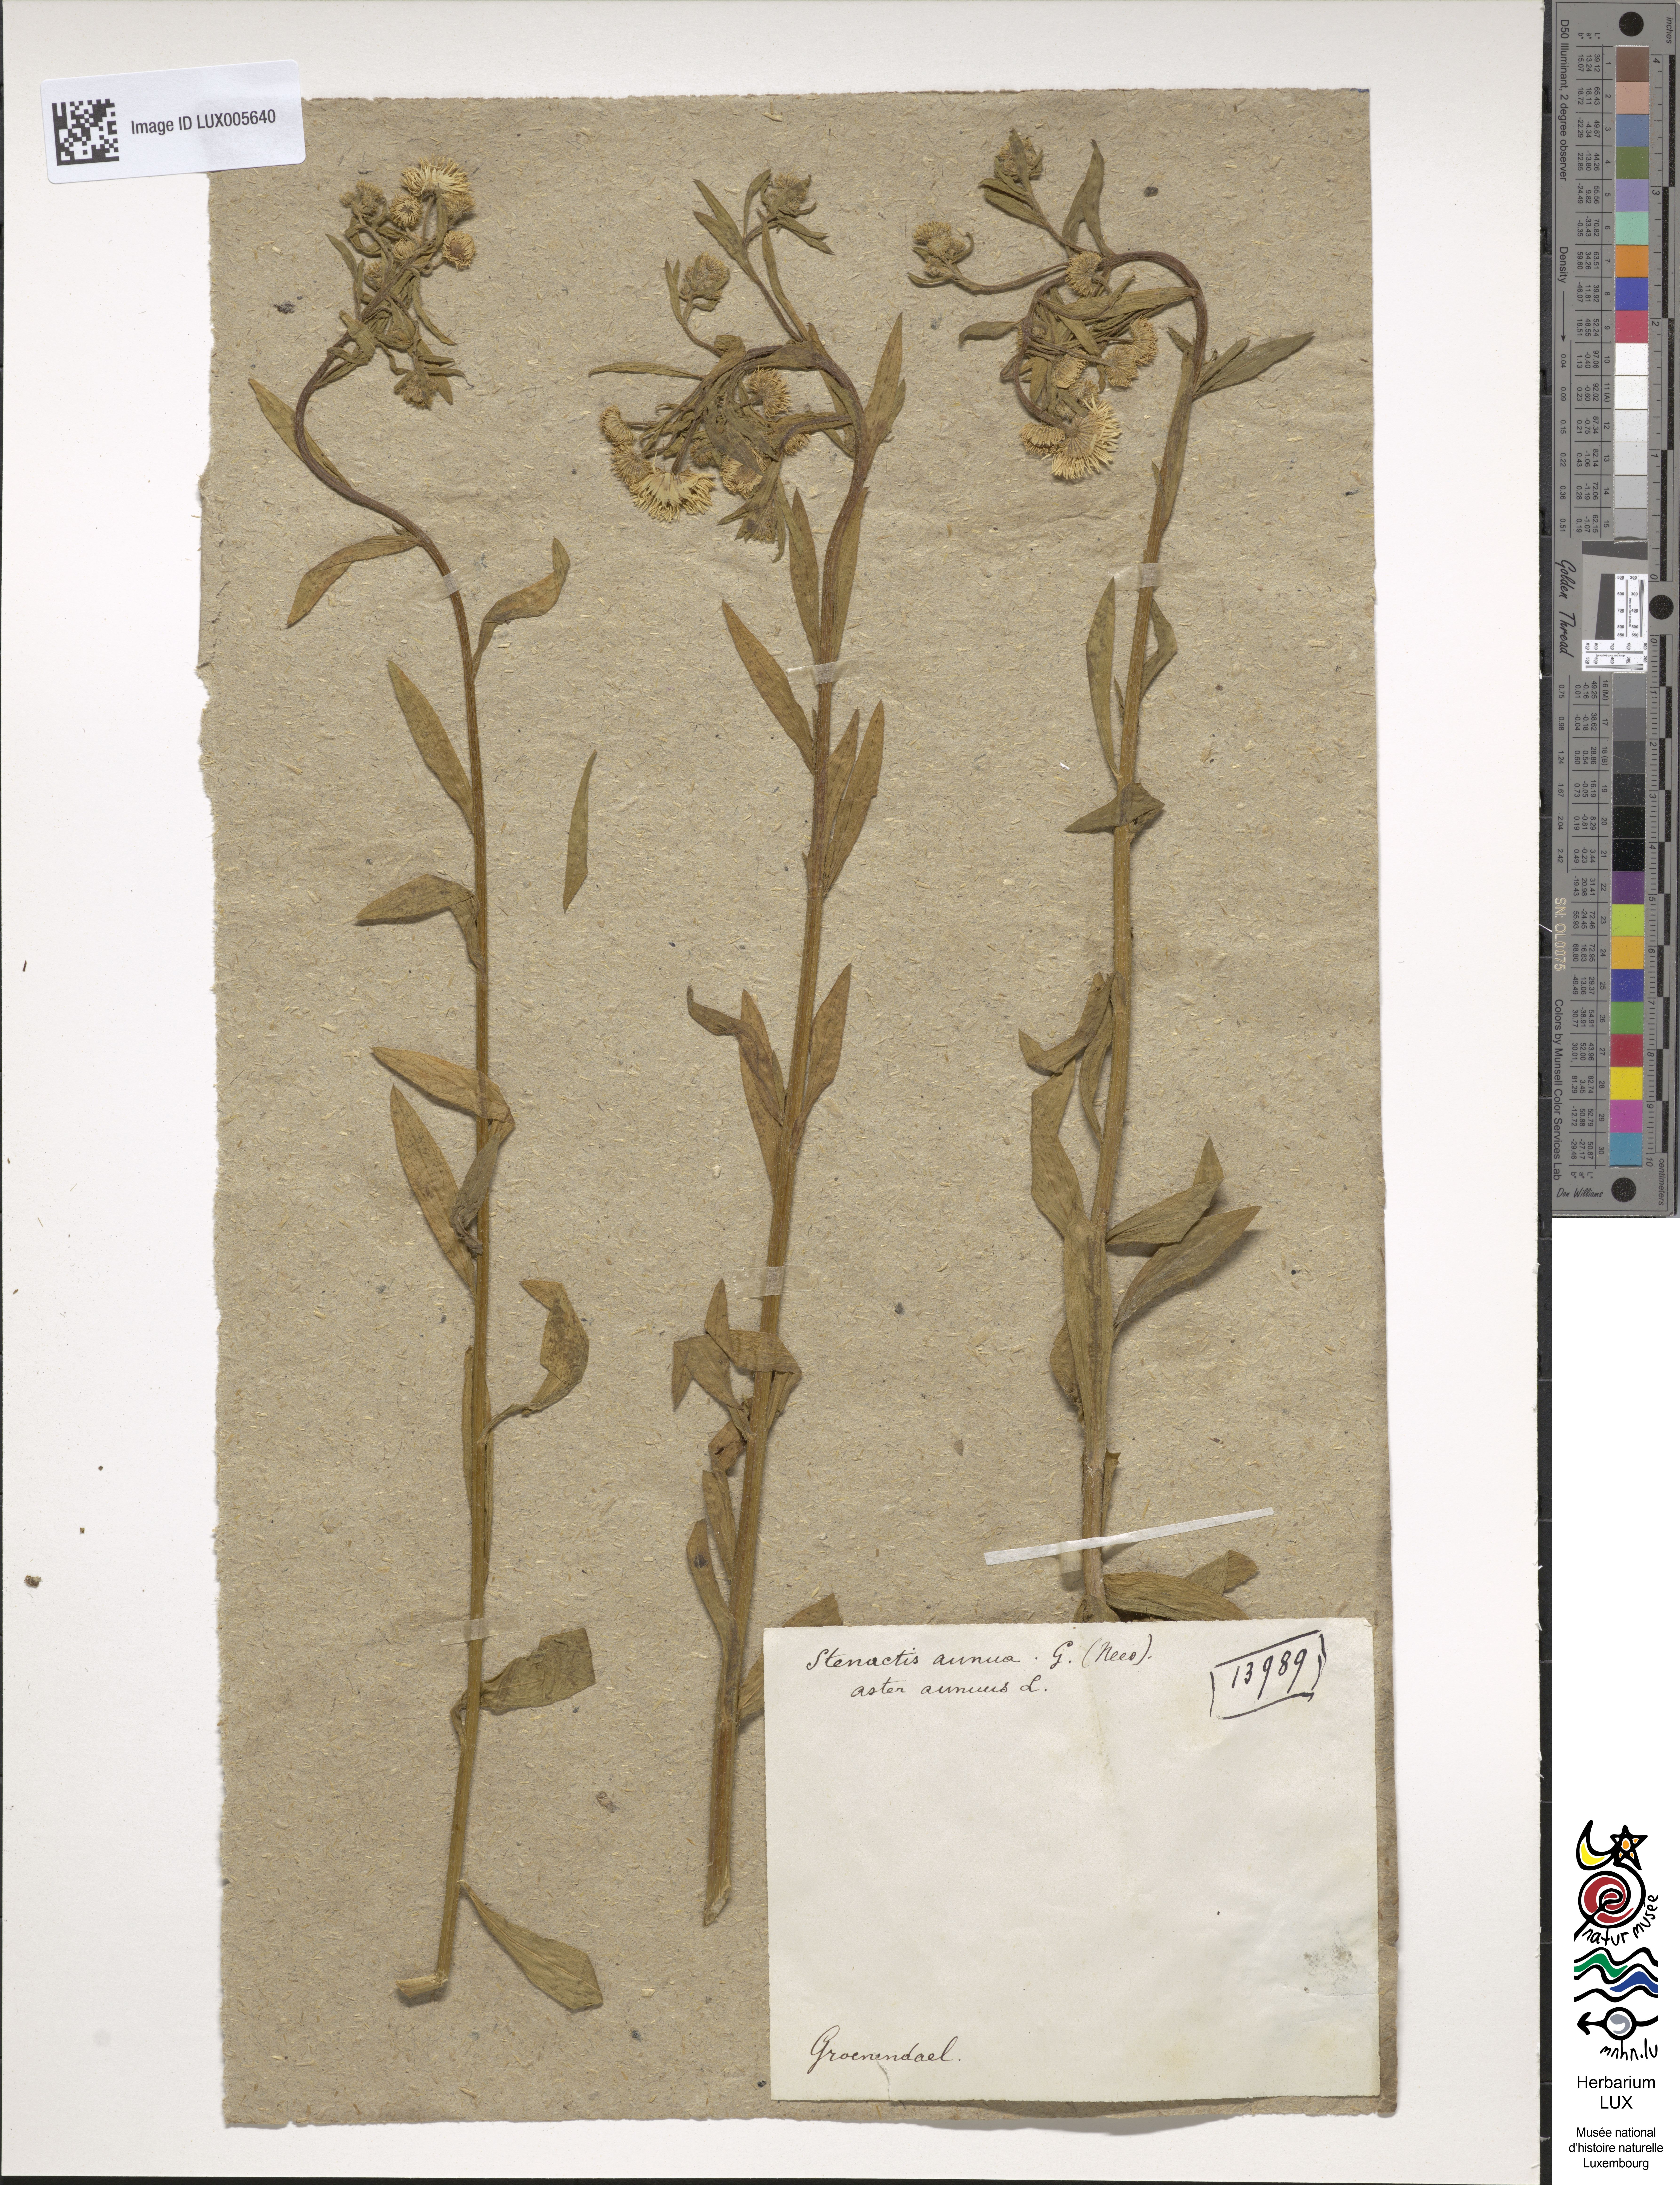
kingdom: Plantae
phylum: Tracheophyta
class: Magnoliopsida
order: Asterales
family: Asteraceae
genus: Erigeron
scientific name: Erigeron annuus
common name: Tall fleabane
